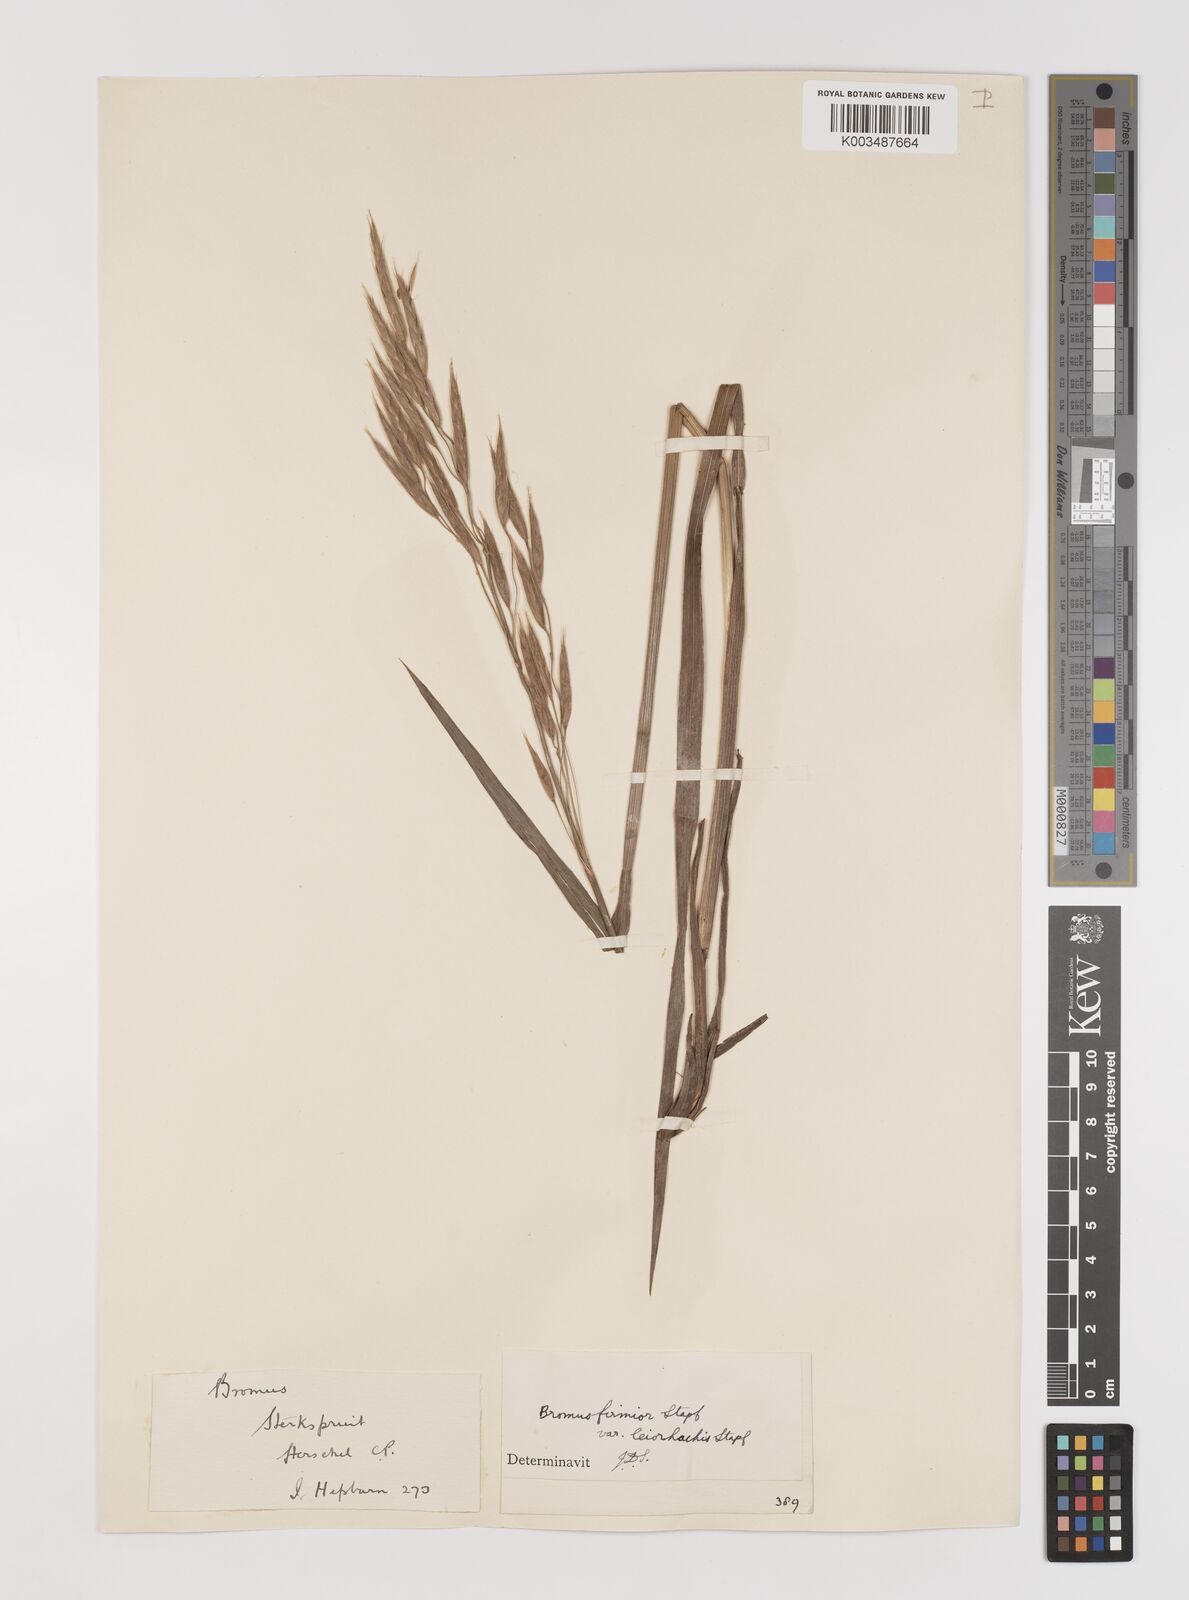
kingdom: Plantae
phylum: Tracheophyta
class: Liliopsida
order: Poales
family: Poaceae
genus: Bromus
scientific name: Bromus firmior
